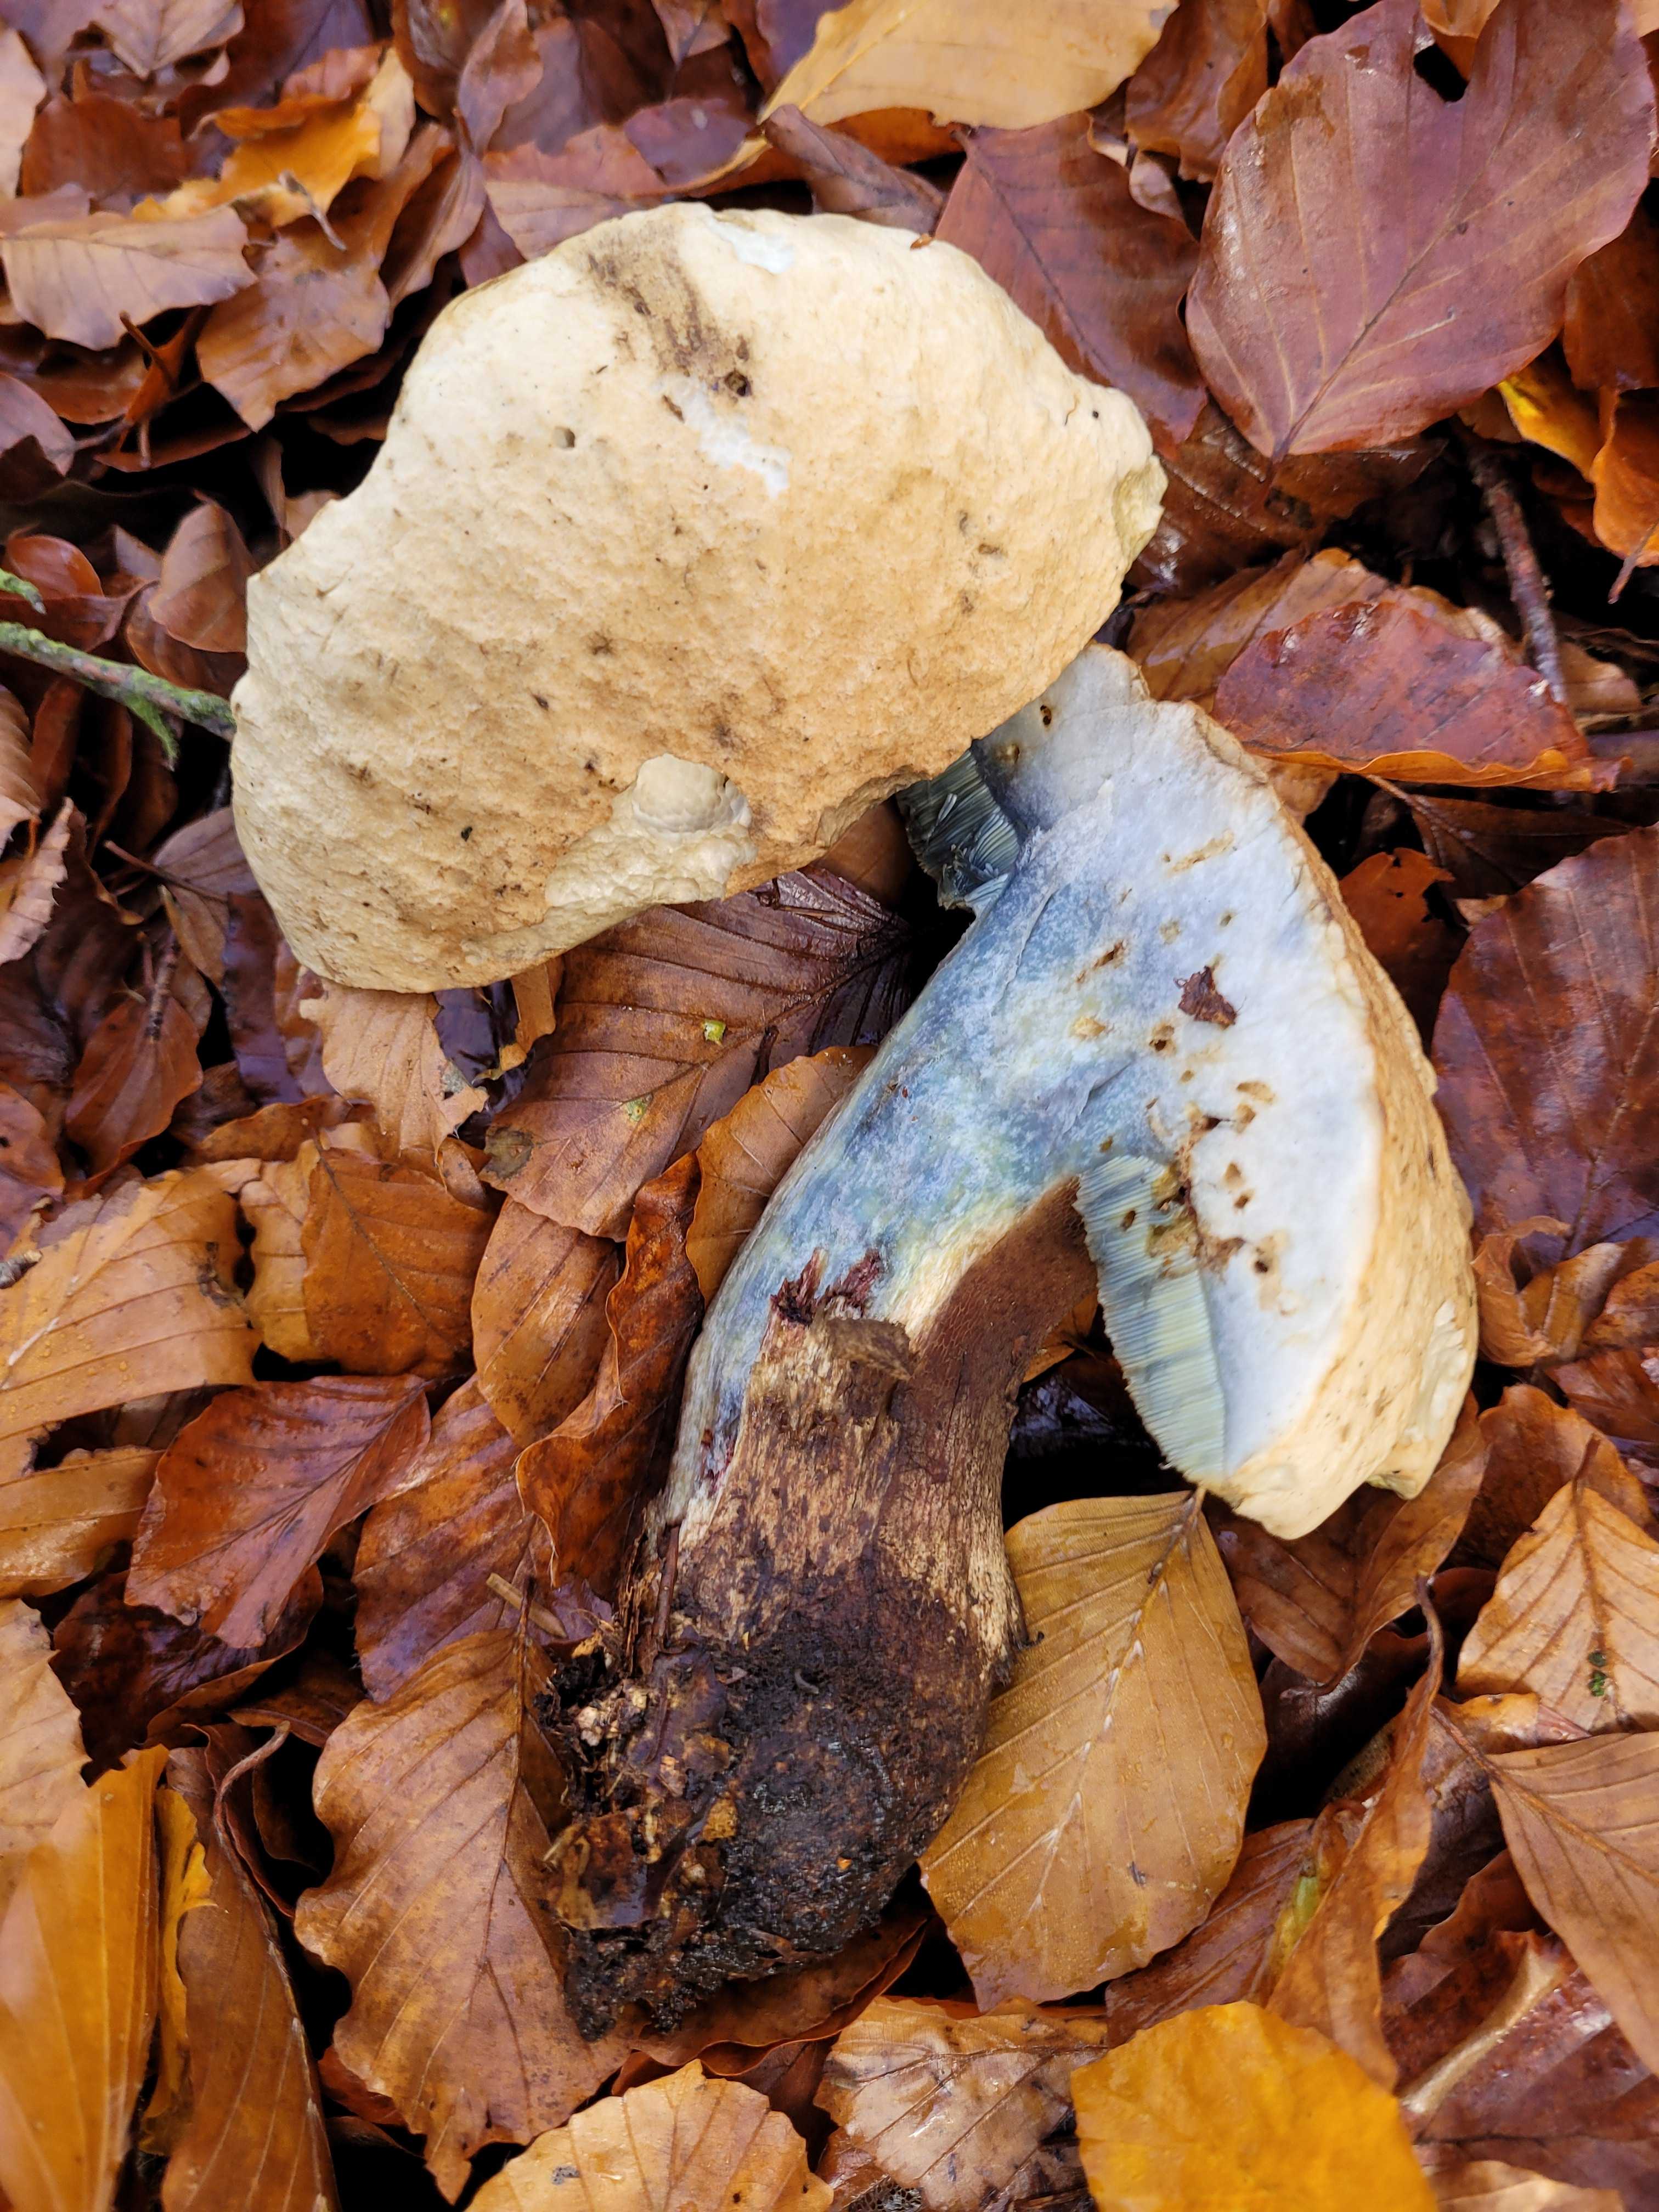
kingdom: Fungi
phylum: Basidiomycota
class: Agaricomycetes
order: Boletales
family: Boletaceae
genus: Caloboletus
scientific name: Caloboletus calopus
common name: skønfodet rørhat
